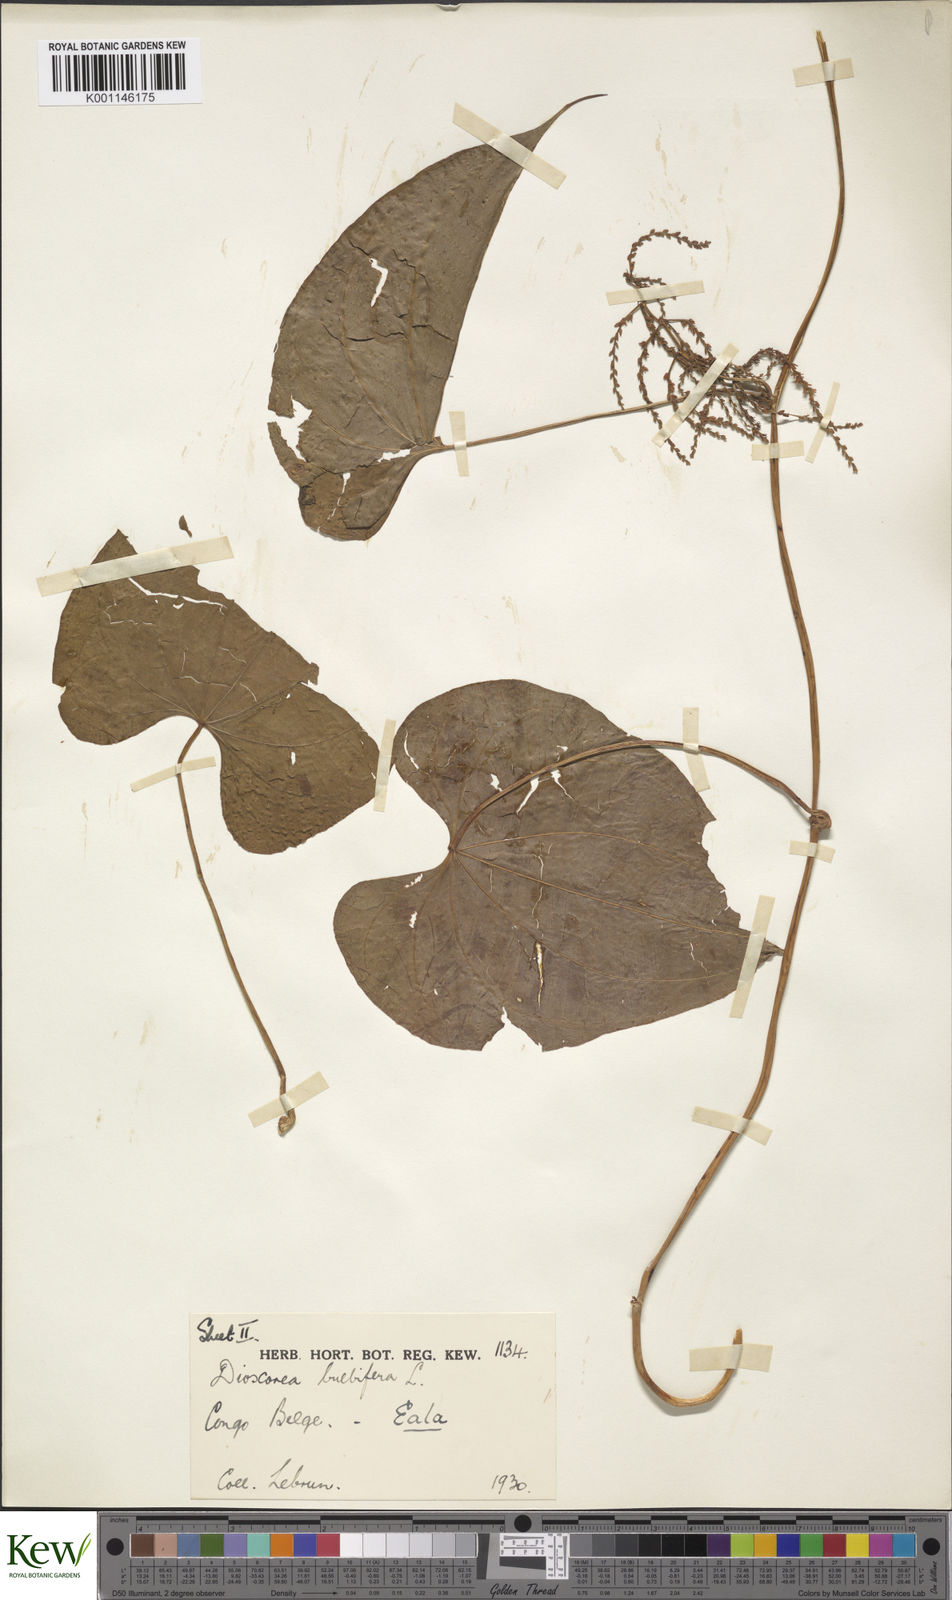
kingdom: Plantae
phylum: Tracheophyta
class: Liliopsida
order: Dioscoreales
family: Dioscoreaceae
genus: Dioscorea
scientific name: Dioscorea bulbifera
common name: Air yam
